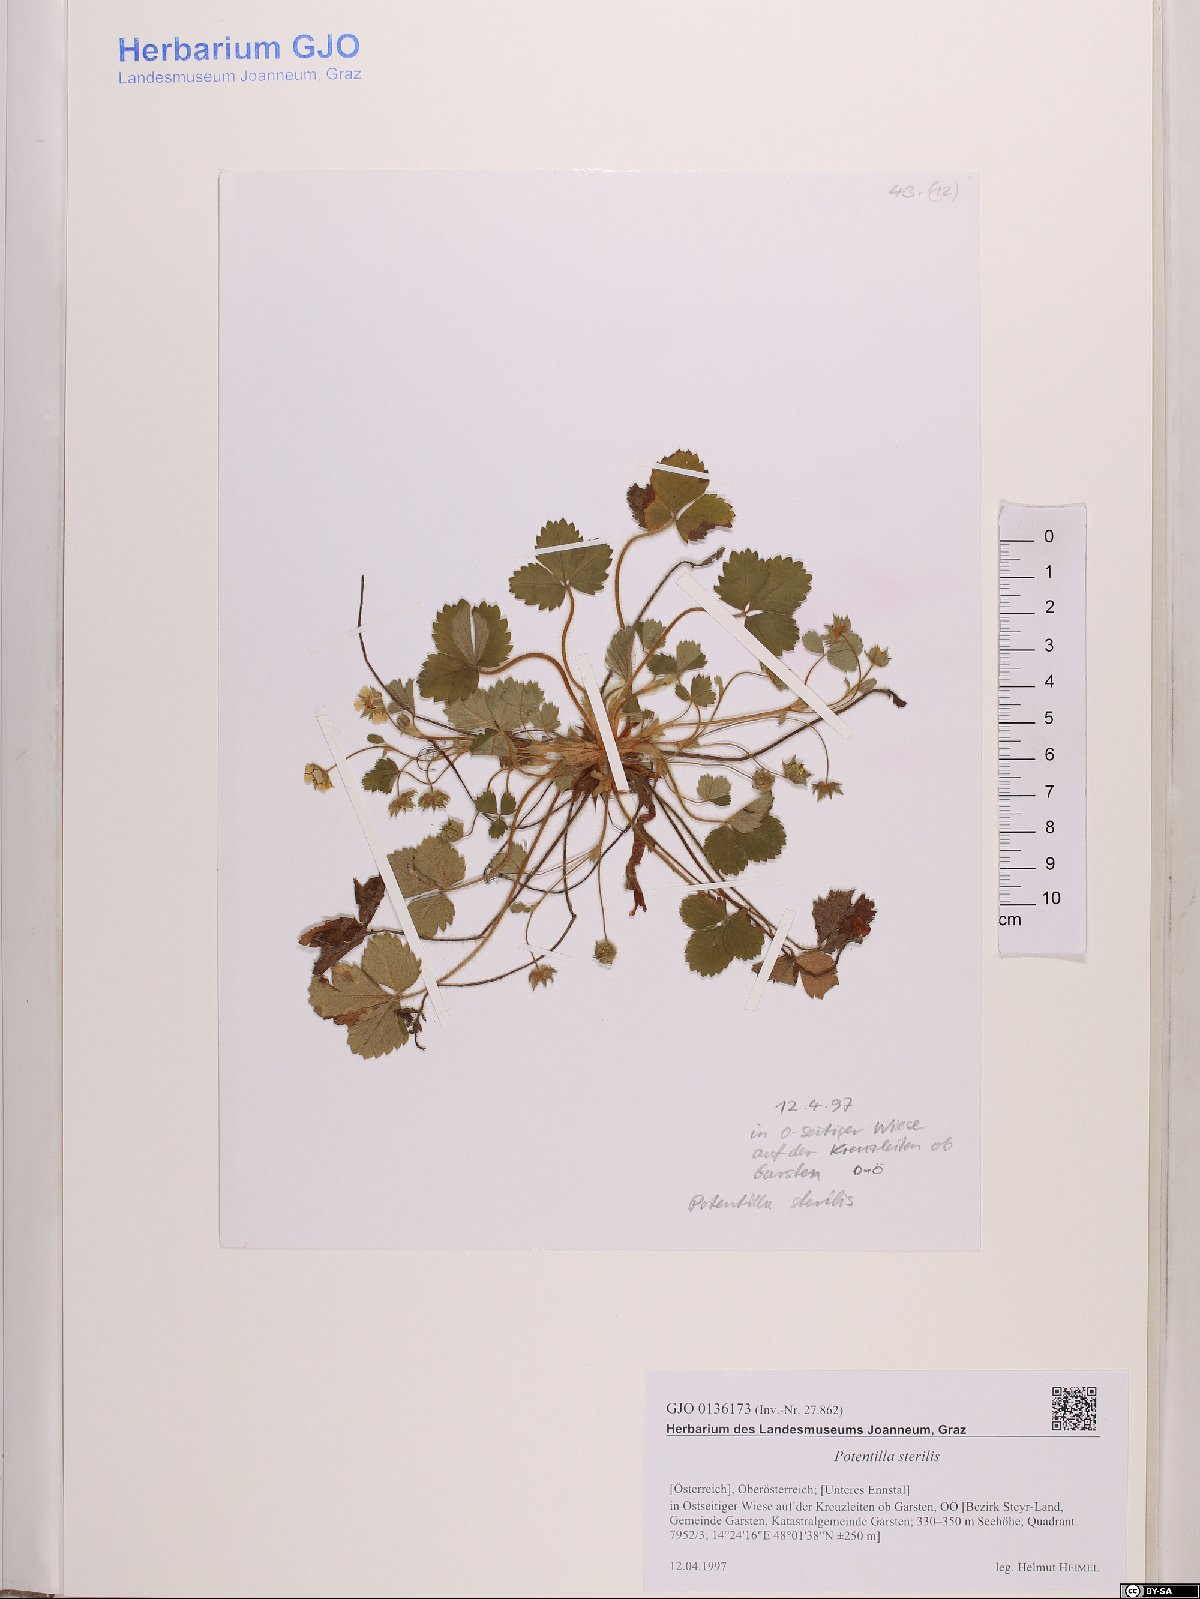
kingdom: Plantae
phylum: Tracheophyta
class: Magnoliopsida
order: Rosales
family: Rosaceae
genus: Potentilla
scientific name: Potentilla sterilis
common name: Barren strawberry
